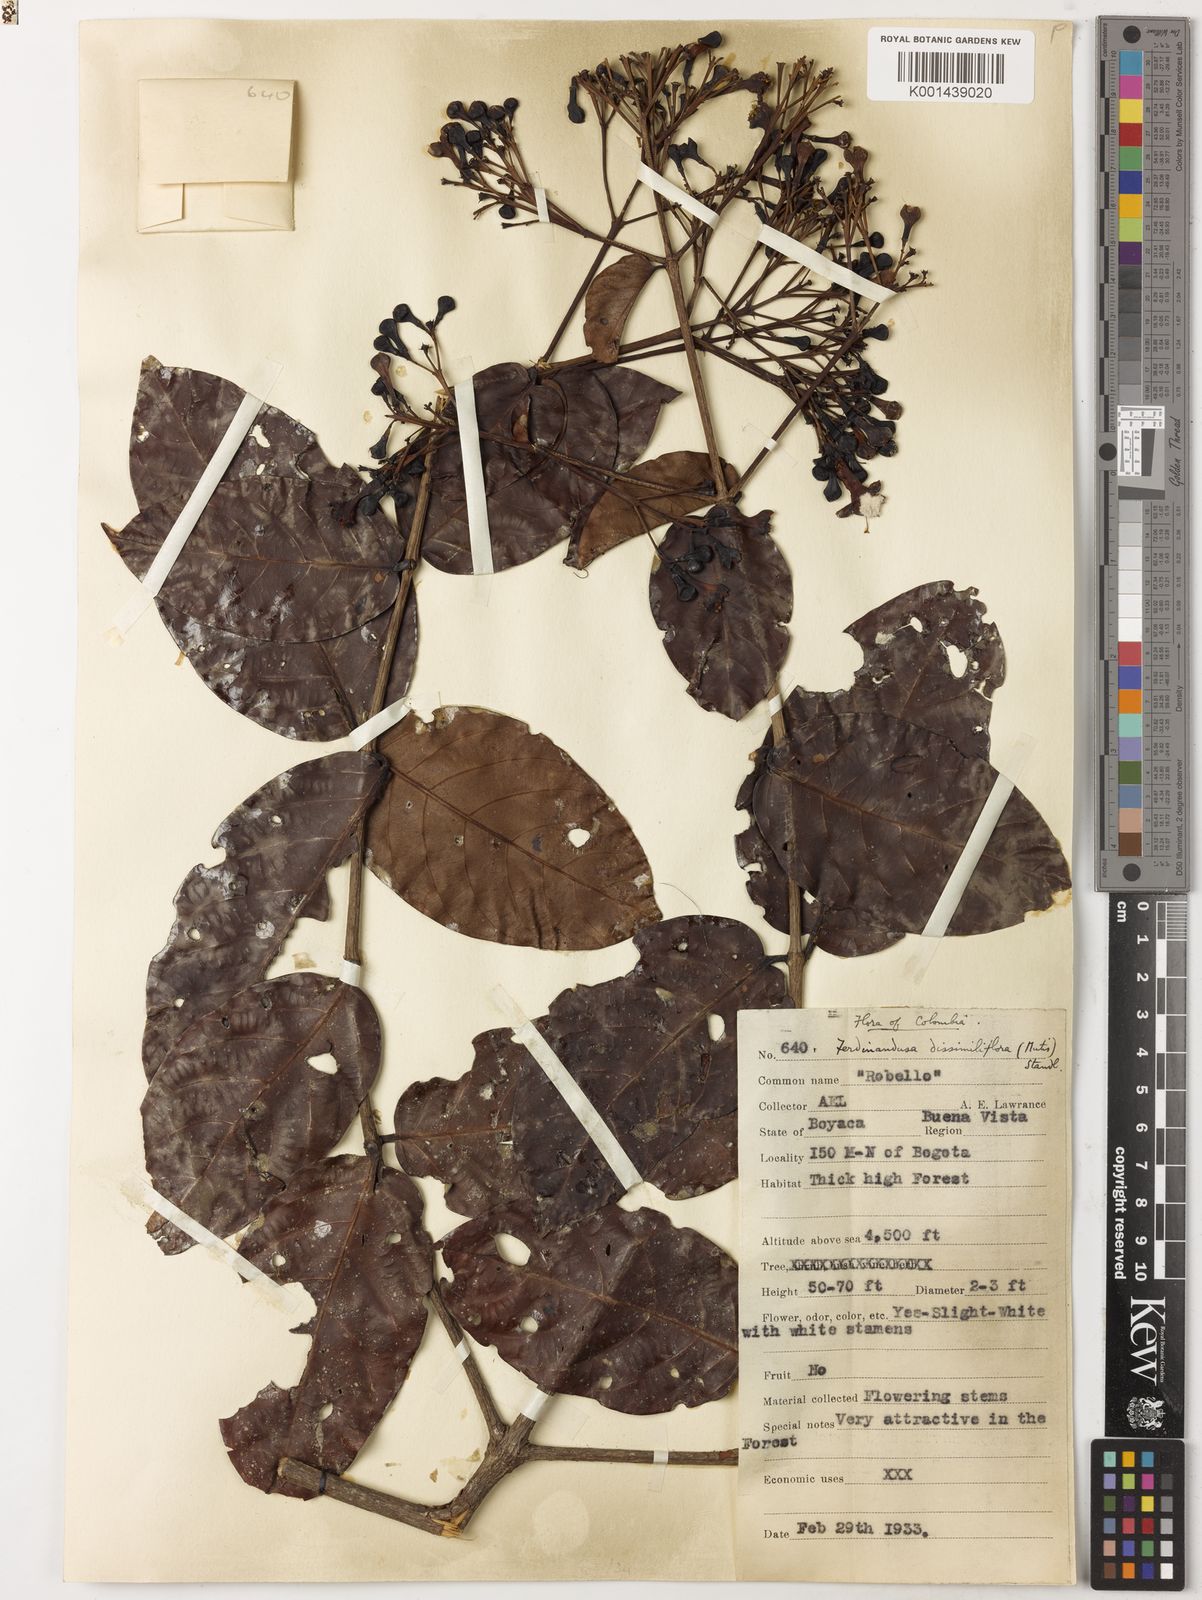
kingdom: Plantae
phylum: Tracheophyta
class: Magnoliopsida
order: Gentianales
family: Rubiaceae
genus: Ferdinandusa
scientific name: Ferdinandusa dissimiliflora
